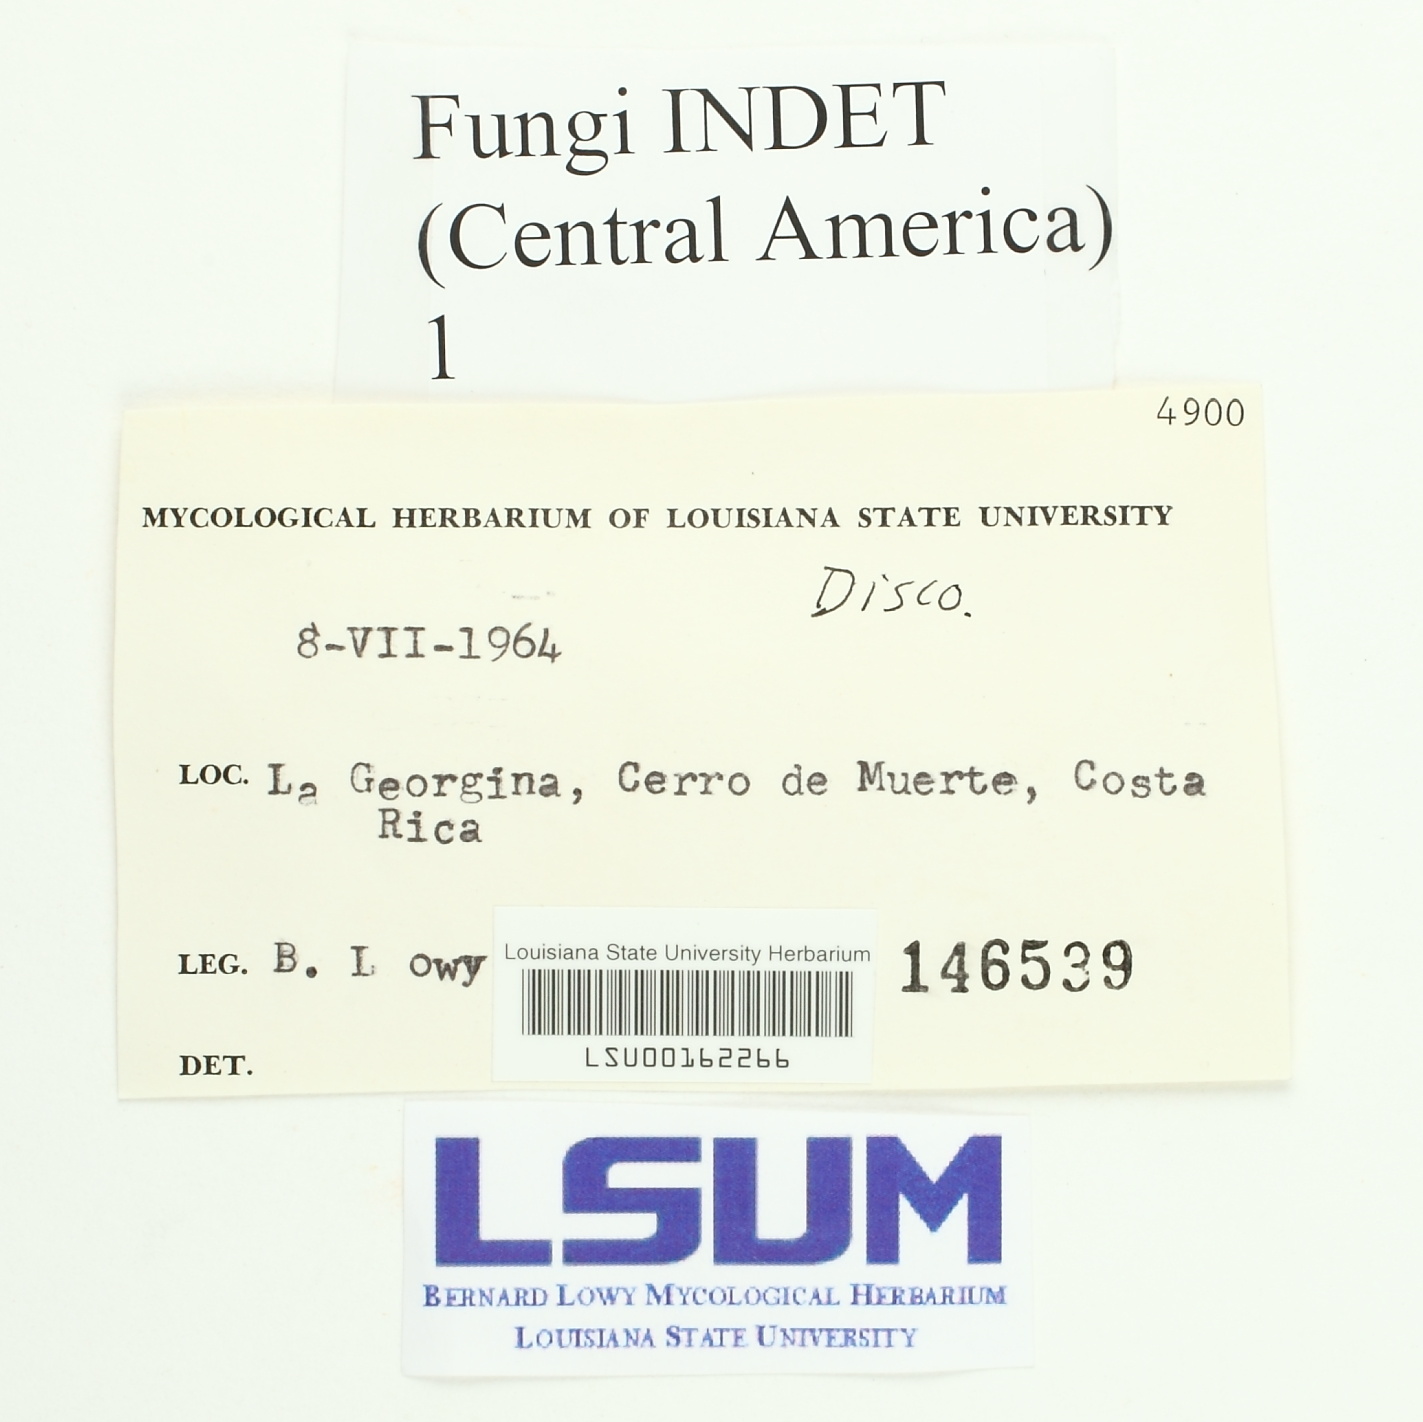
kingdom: Fungi
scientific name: Fungi
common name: Fungi
